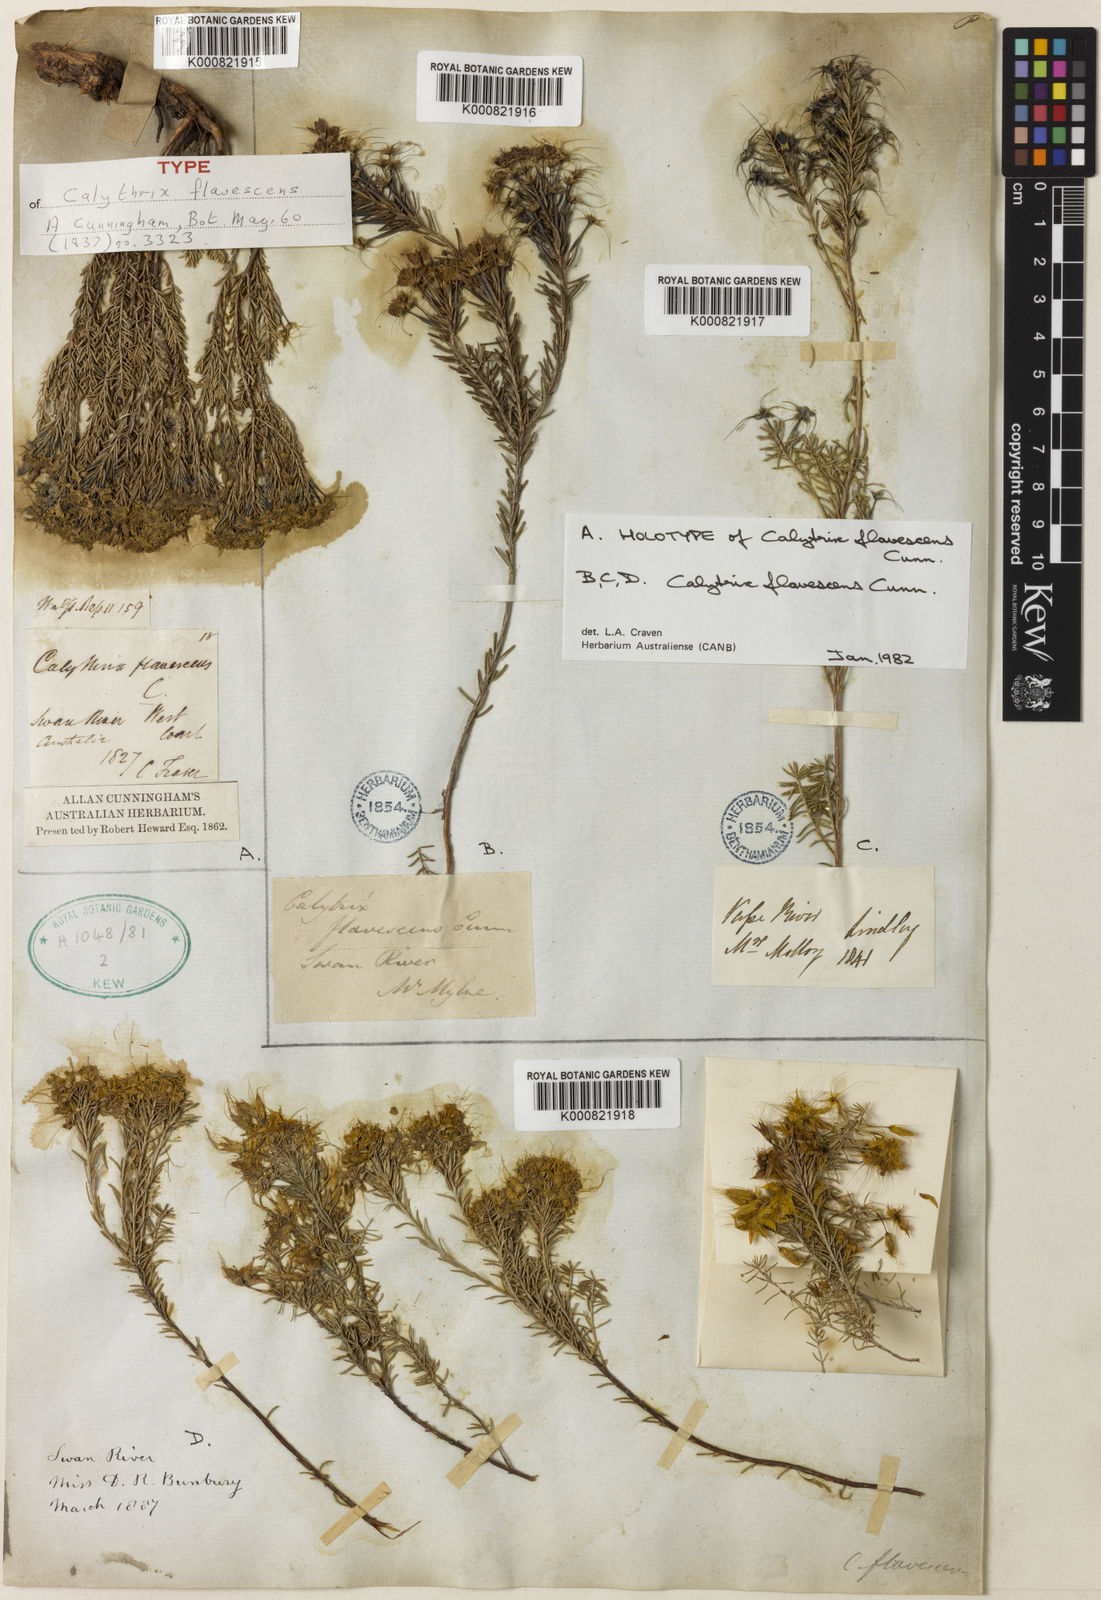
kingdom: Plantae
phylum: Tracheophyta
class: Magnoliopsida
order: Myrtales
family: Myrtaceae
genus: Calytrix
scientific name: Calytrix flavescens
